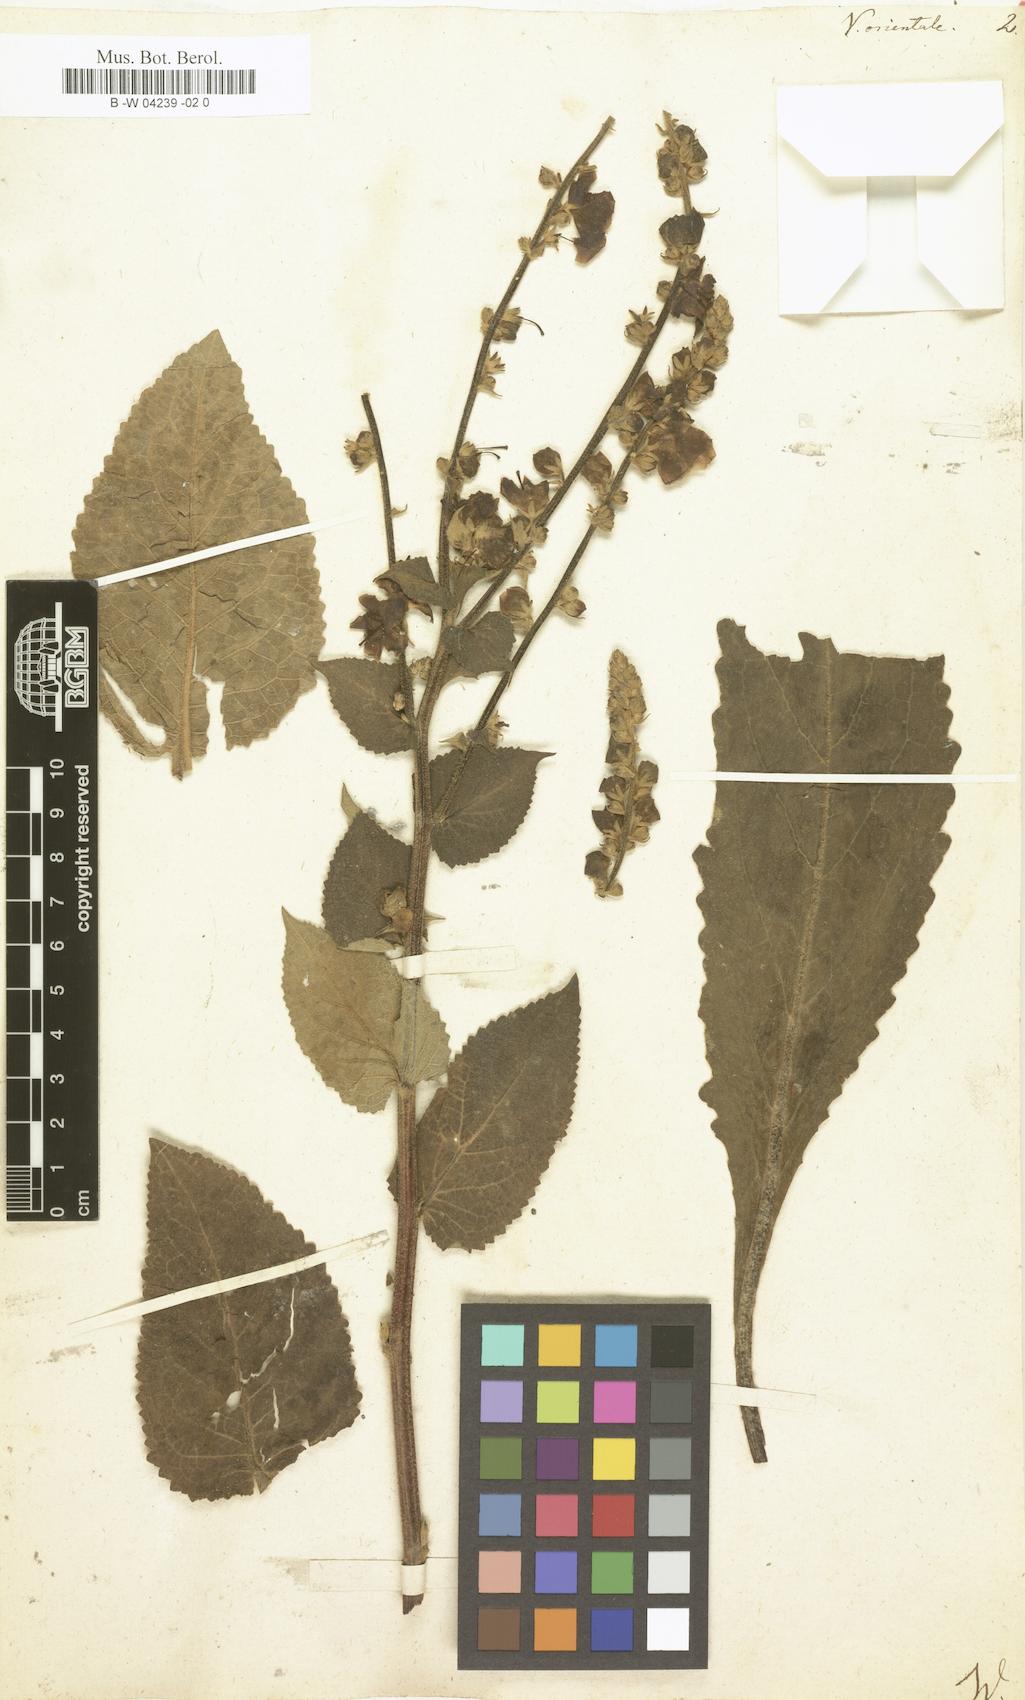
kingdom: Plantae
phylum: Tracheophyta
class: Magnoliopsida
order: Lamiales
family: Scrophulariaceae
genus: Verbascum
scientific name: Verbascum orientale
